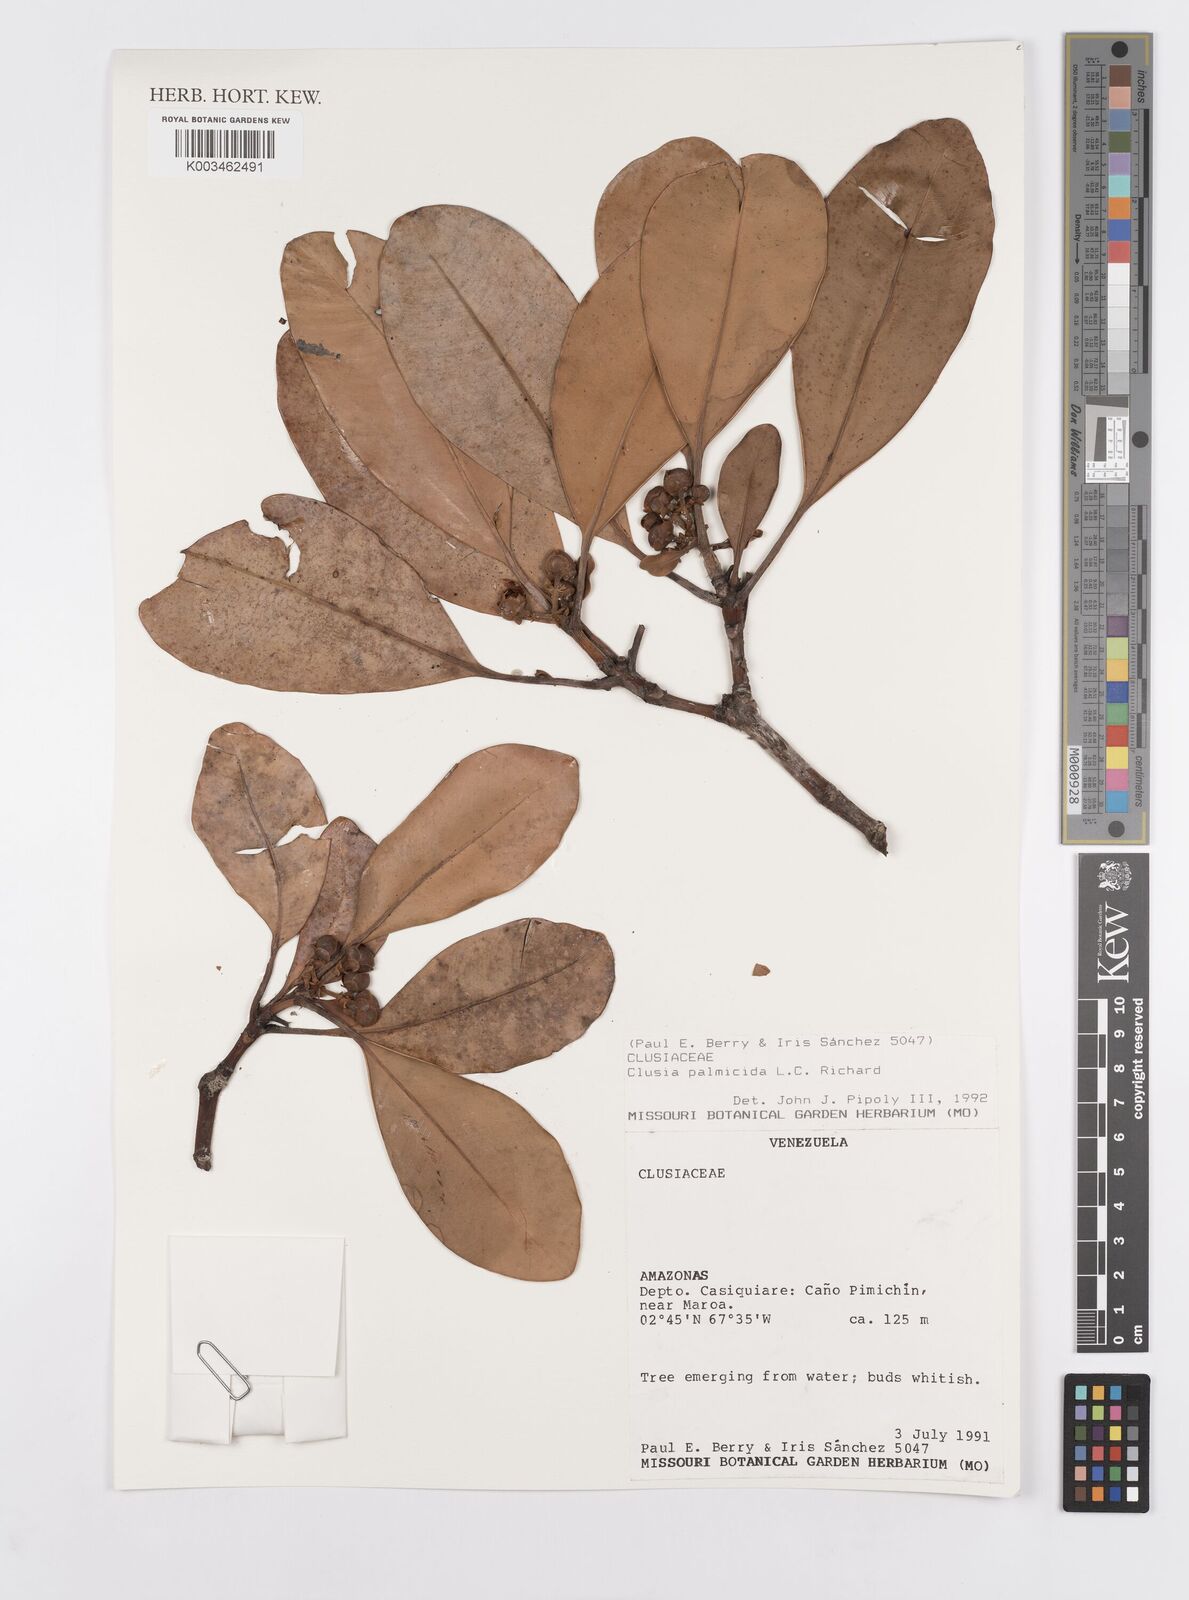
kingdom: Plantae
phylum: Tracheophyta
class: Magnoliopsida
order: Malpighiales
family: Clusiaceae
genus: Clusia
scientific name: Clusia palmicida
